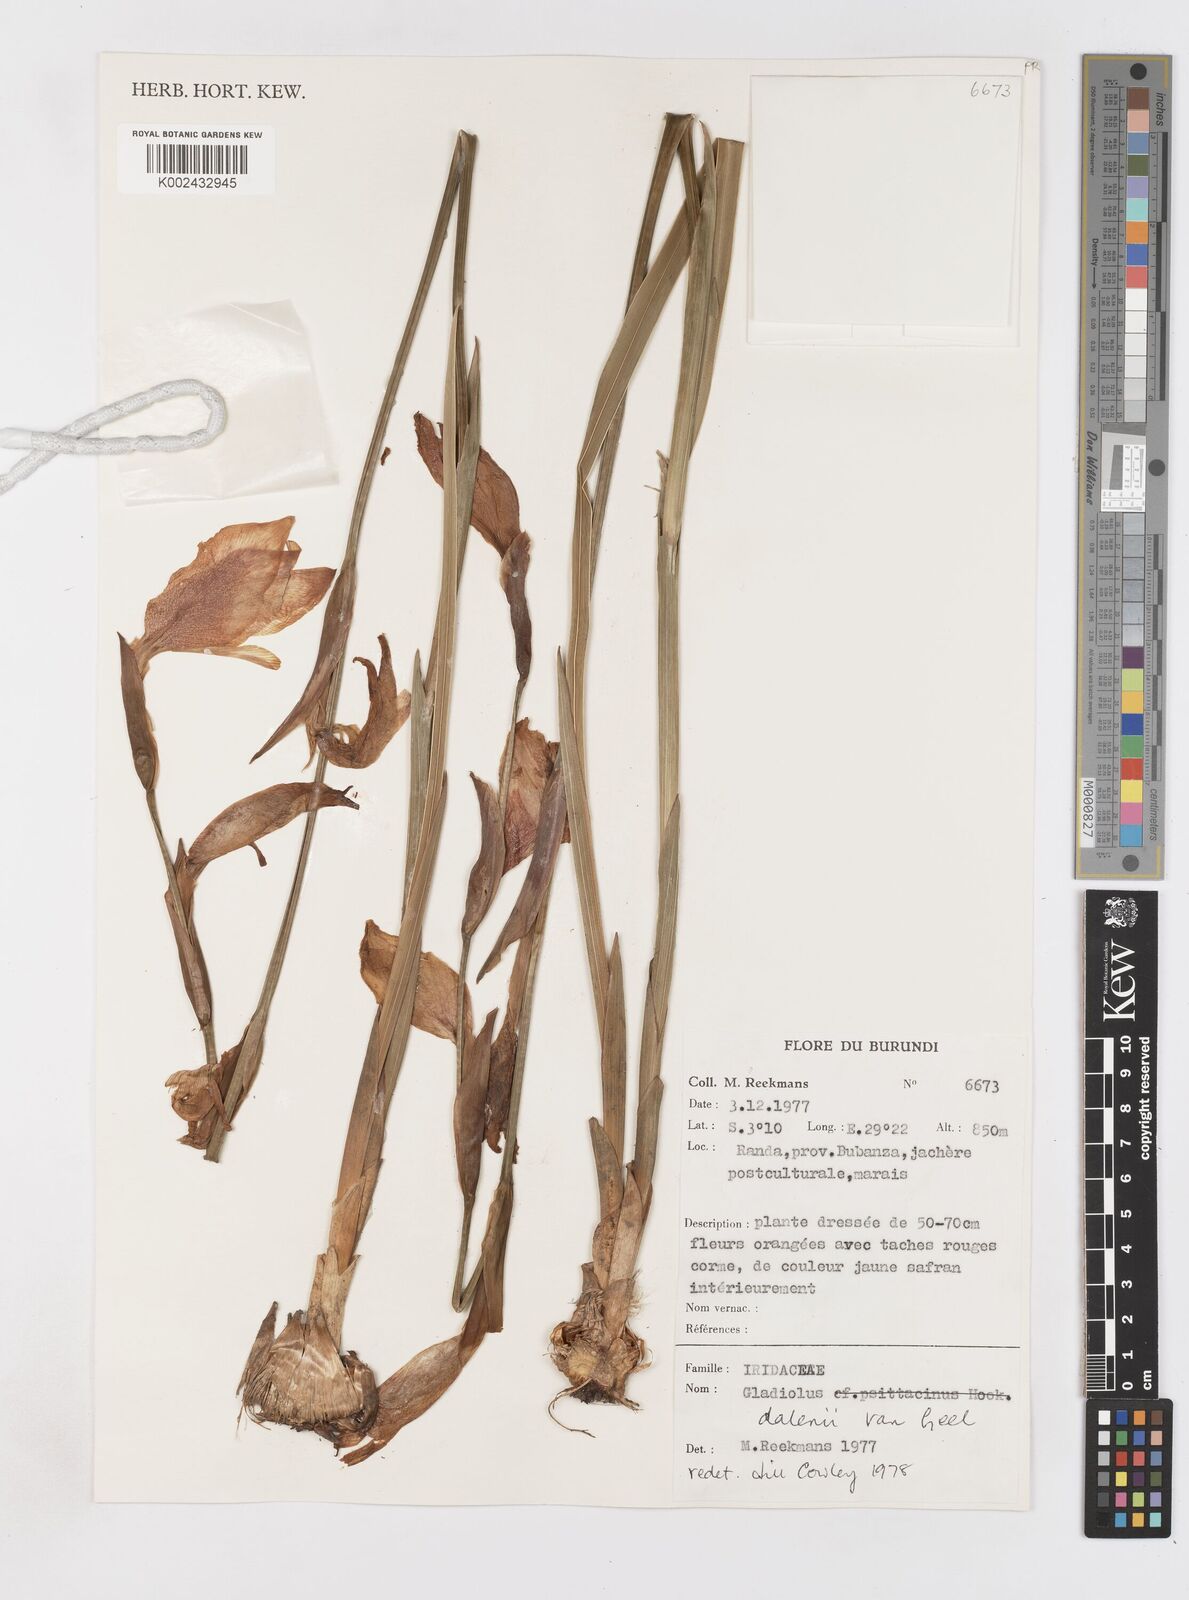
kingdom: Plantae
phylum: Tracheophyta
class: Liliopsida
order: Asparagales
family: Iridaceae
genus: Gladiolus
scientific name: Gladiolus dalenii
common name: Cornflag
